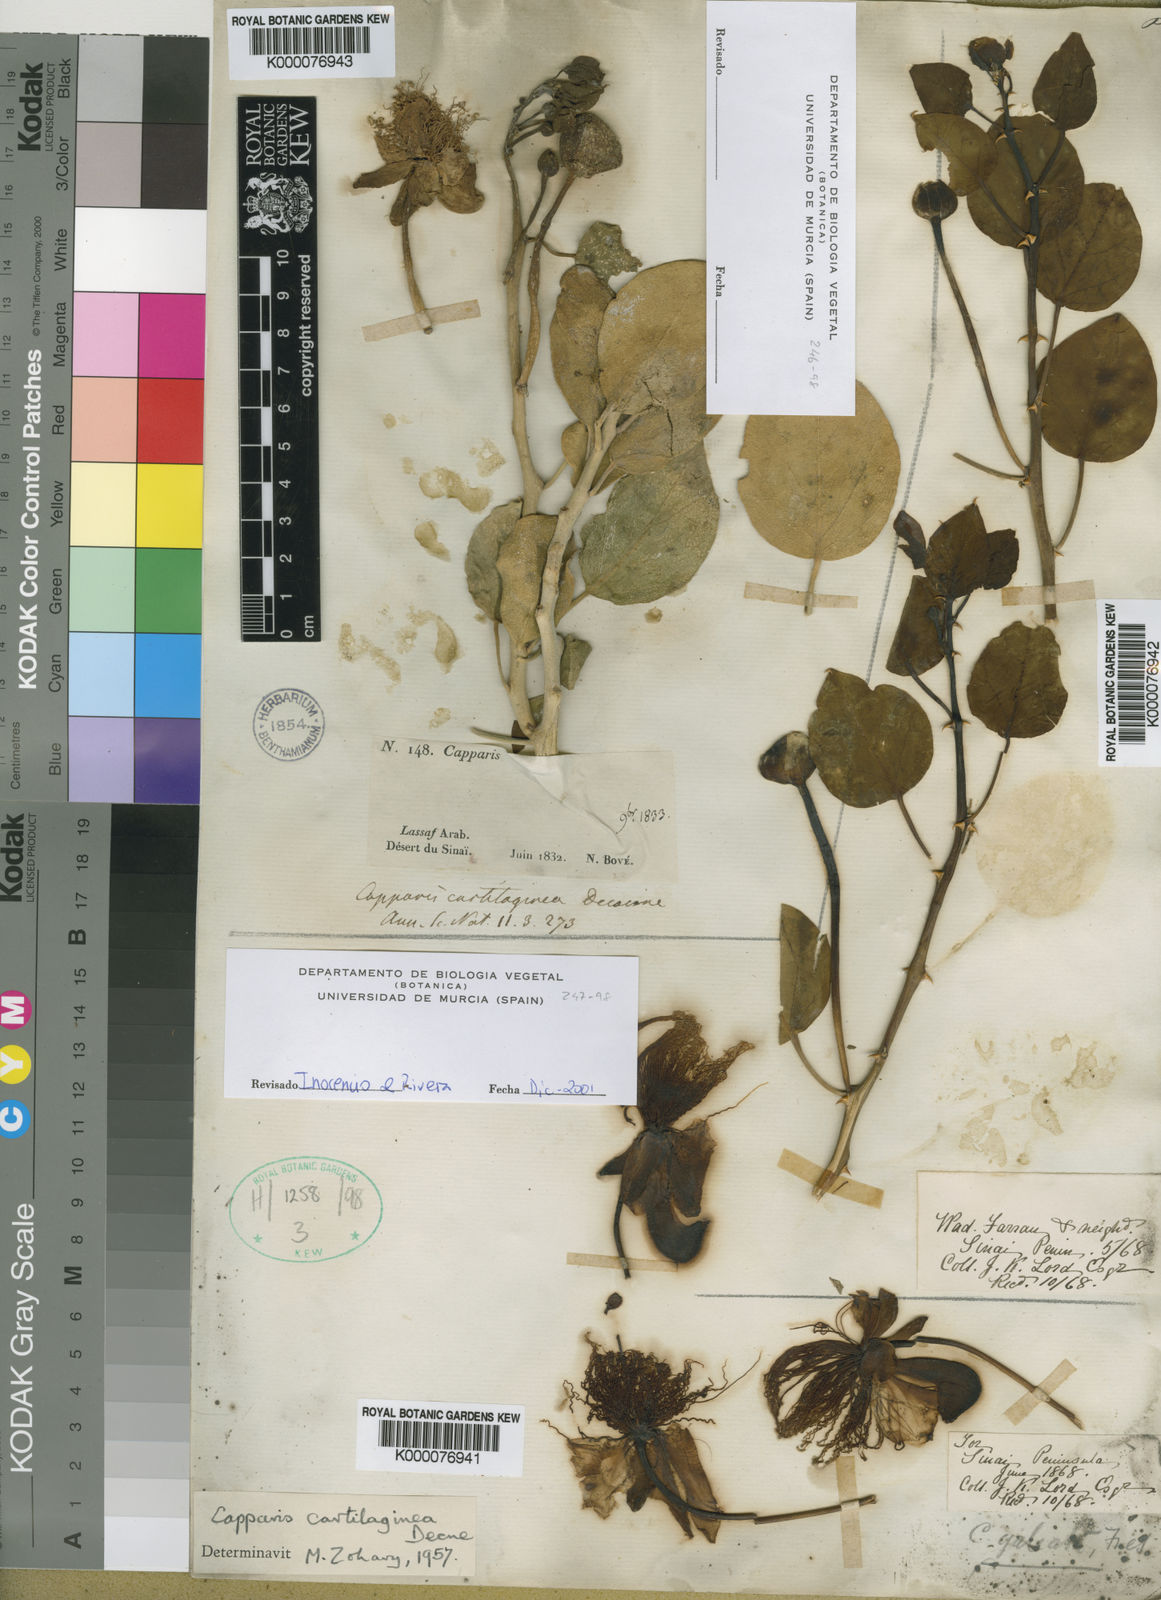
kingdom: Plantae
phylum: Tracheophyta
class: Magnoliopsida
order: Brassicales
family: Capparaceae
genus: Capparis
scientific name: Capparis cartilaginea
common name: Caper
